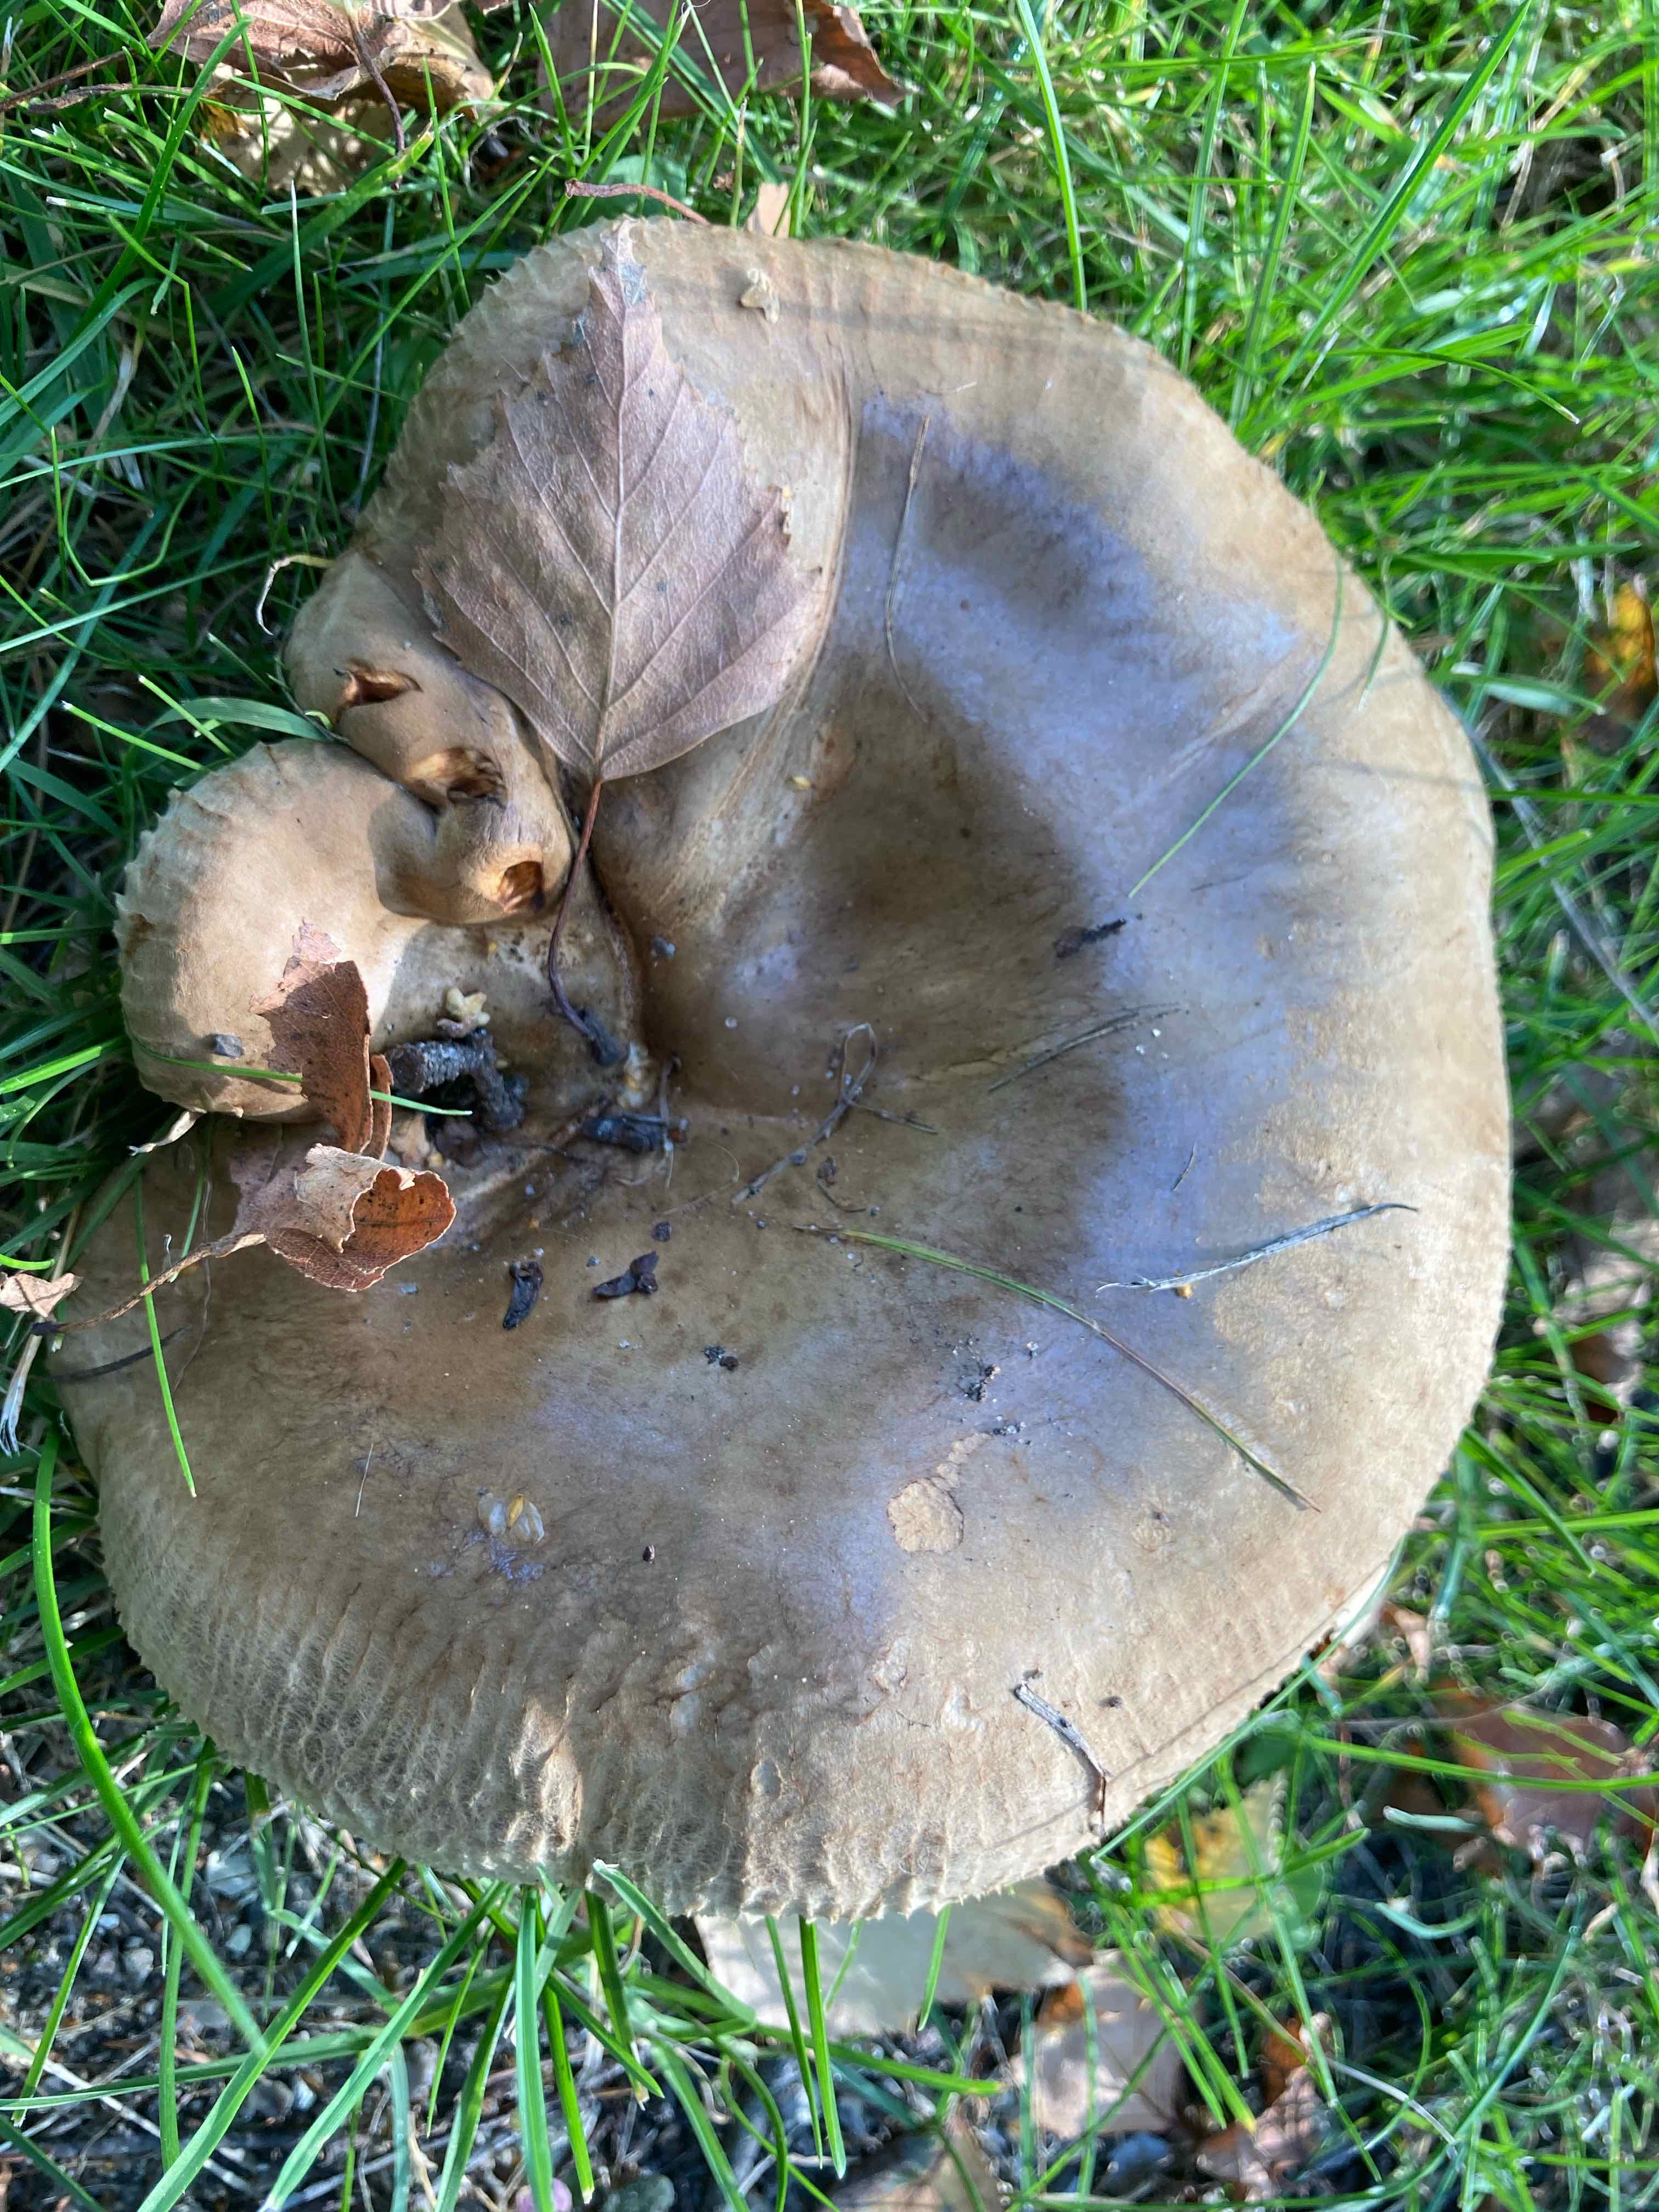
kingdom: Fungi
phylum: Basidiomycota
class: Agaricomycetes
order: Boletales
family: Paxillaceae
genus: Paxillus
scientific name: Paxillus obscurisporus
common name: mahognisporet netbladhat
